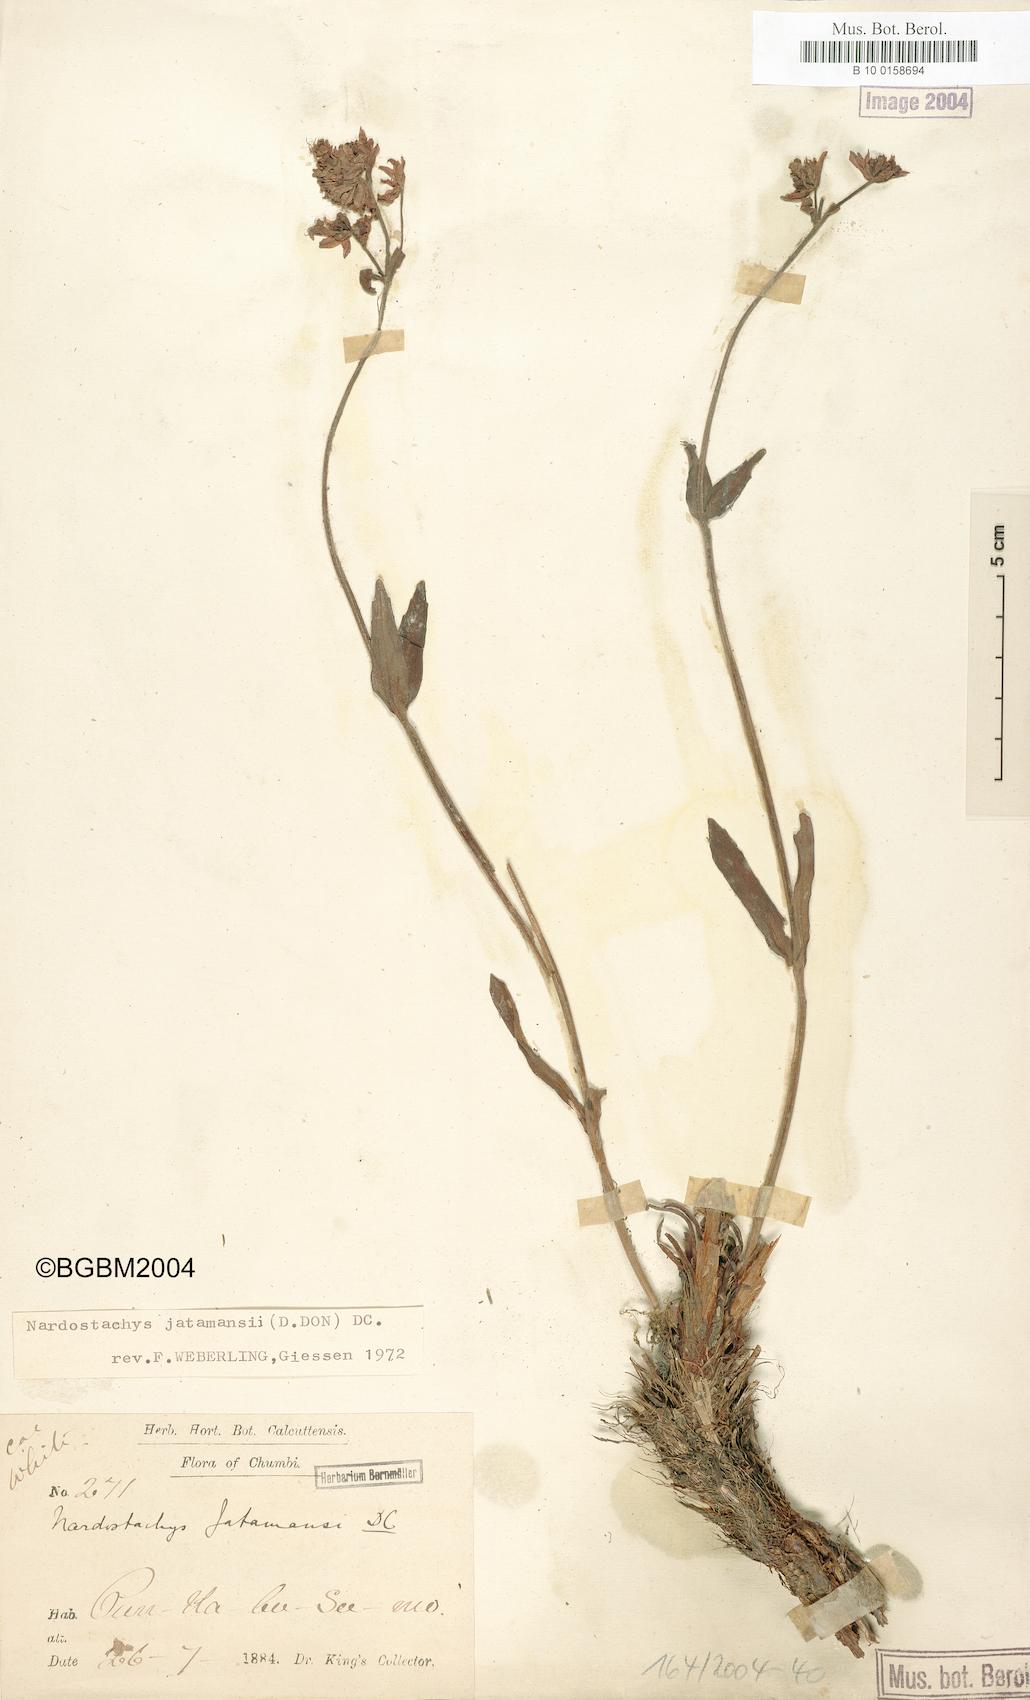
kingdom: Plantae
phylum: Tracheophyta
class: Magnoliopsida
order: Dipsacales
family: Caprifoliaceae
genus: Nardostachys
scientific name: Nardostachys jatamansi
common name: Indian nard
